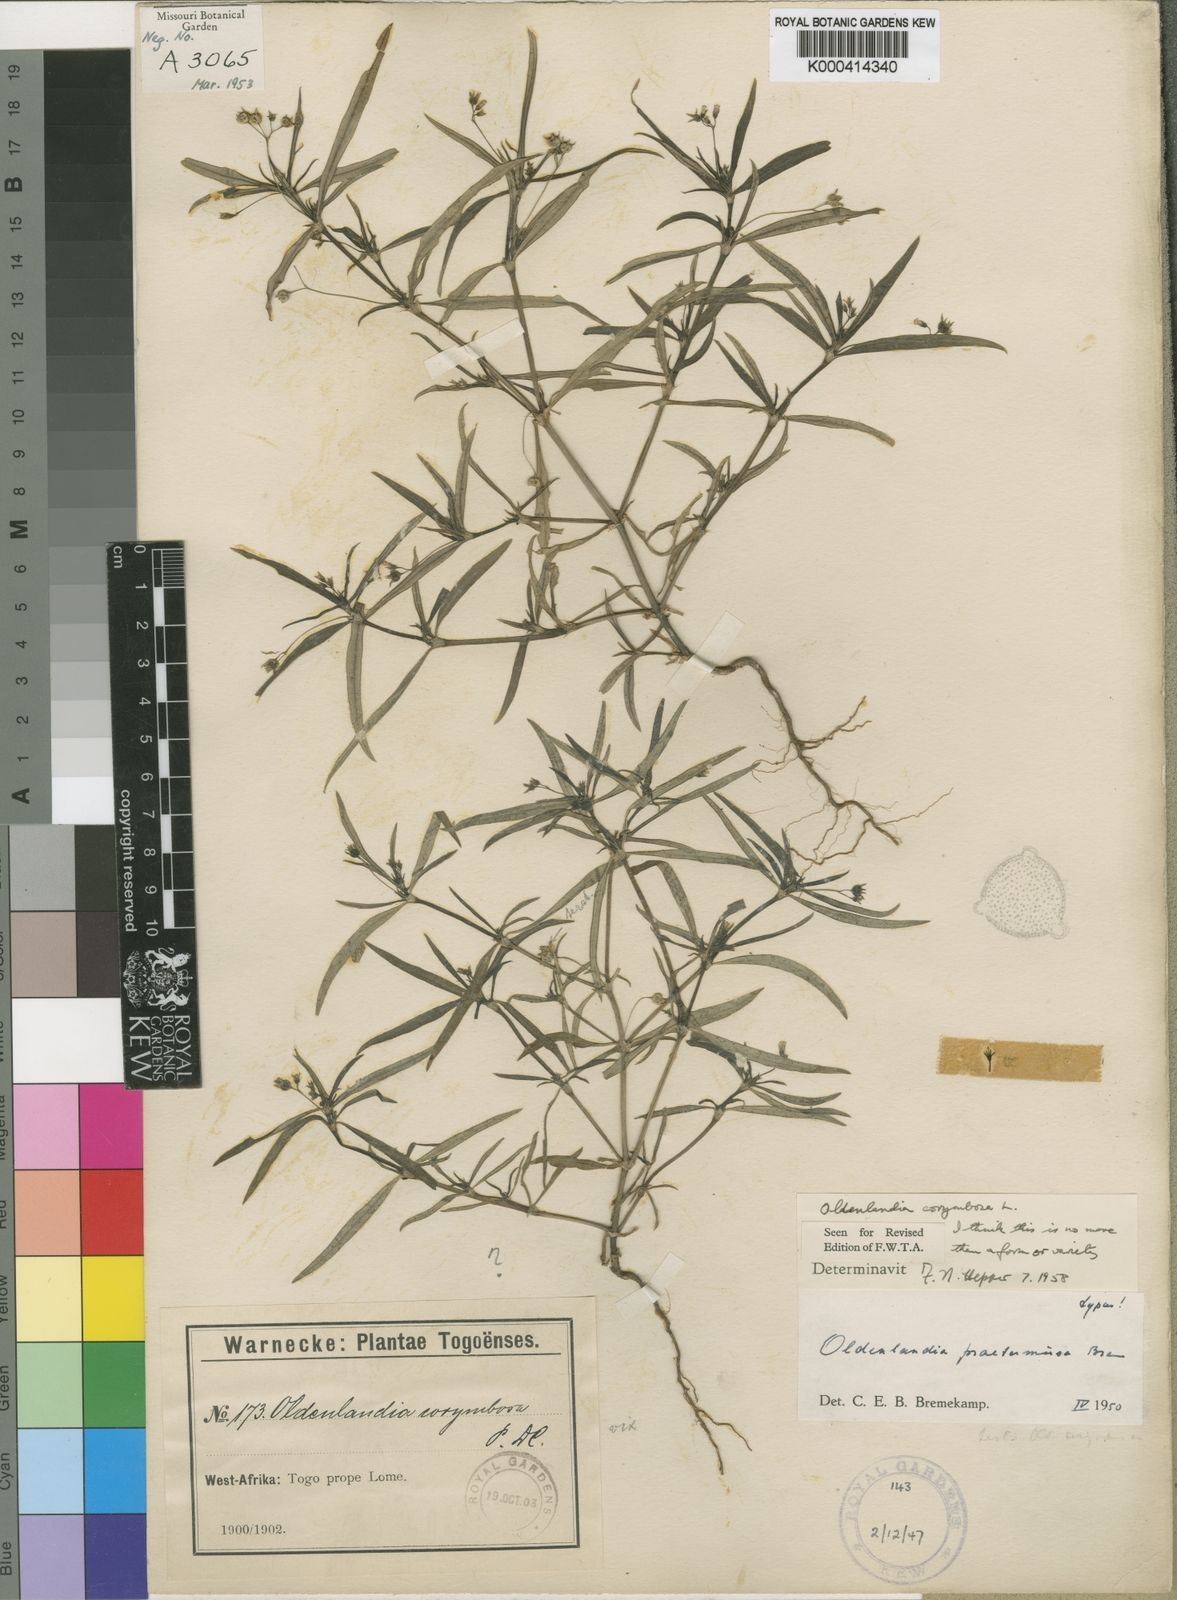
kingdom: Plantae
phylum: Tracheophyta
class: Magnoliopsida
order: Gentianales
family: Rubiaceae
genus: Oldenlandia
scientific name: Oldenlandia corymbosa
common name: Flat-top mille graines
